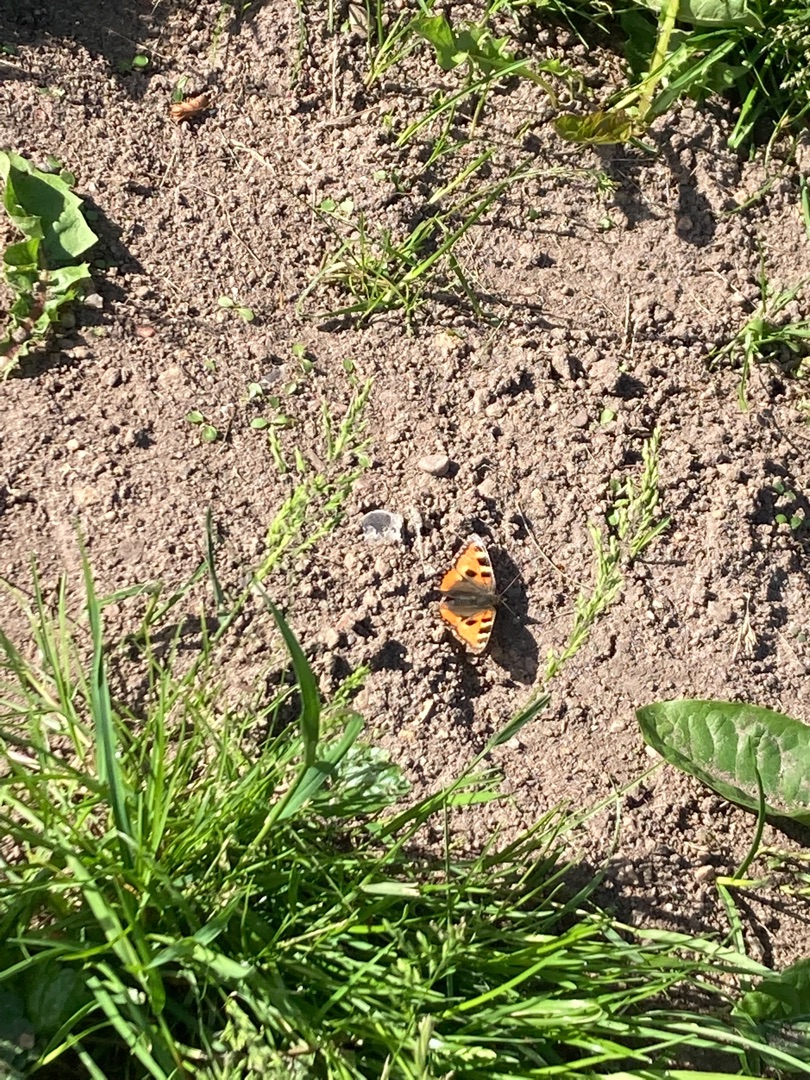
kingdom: Animalia
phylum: Arthropoda
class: Insecta
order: Lepidoptera
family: Nymphalidae
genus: Aglais
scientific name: Aglais urticae
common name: Nældens takvinge
